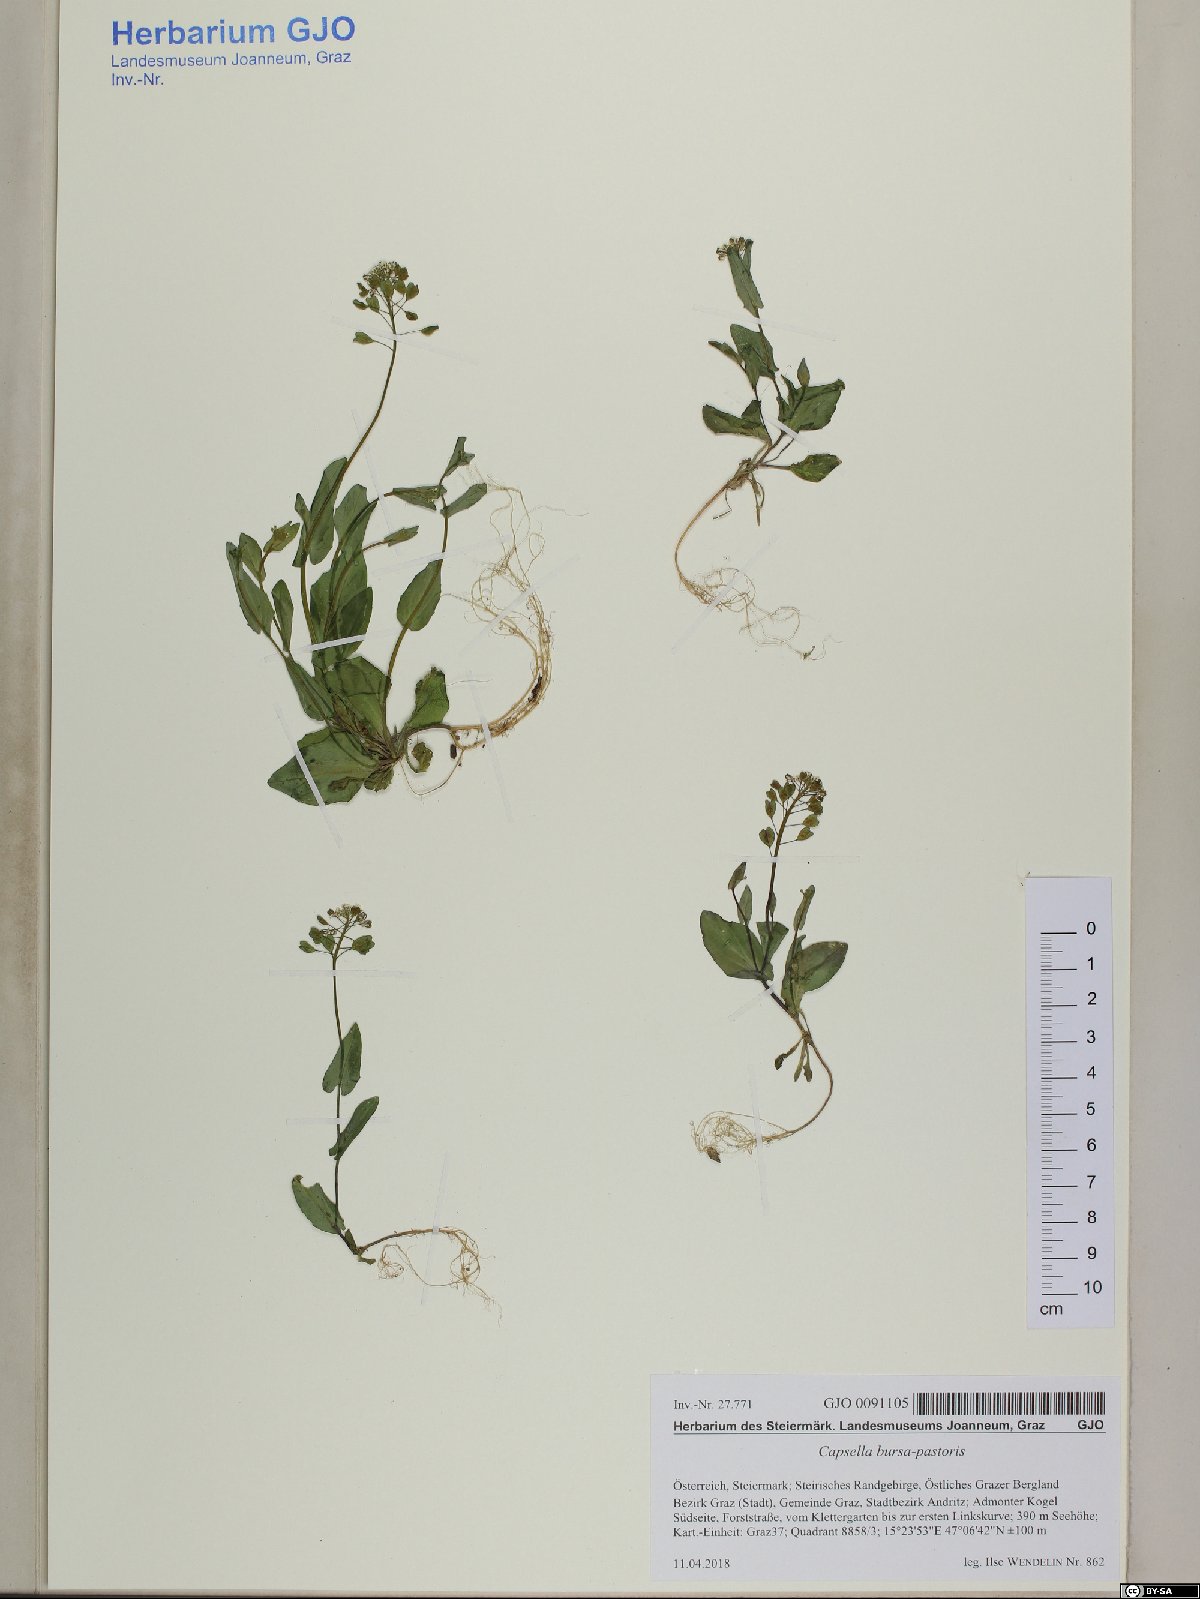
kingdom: Plantae
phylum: Tracheophyta
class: Magnoliopsida
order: Brassicales
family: Brassicaceae
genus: Capsella
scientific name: Capsella bursa-pastoris
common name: Shepherd's purse
